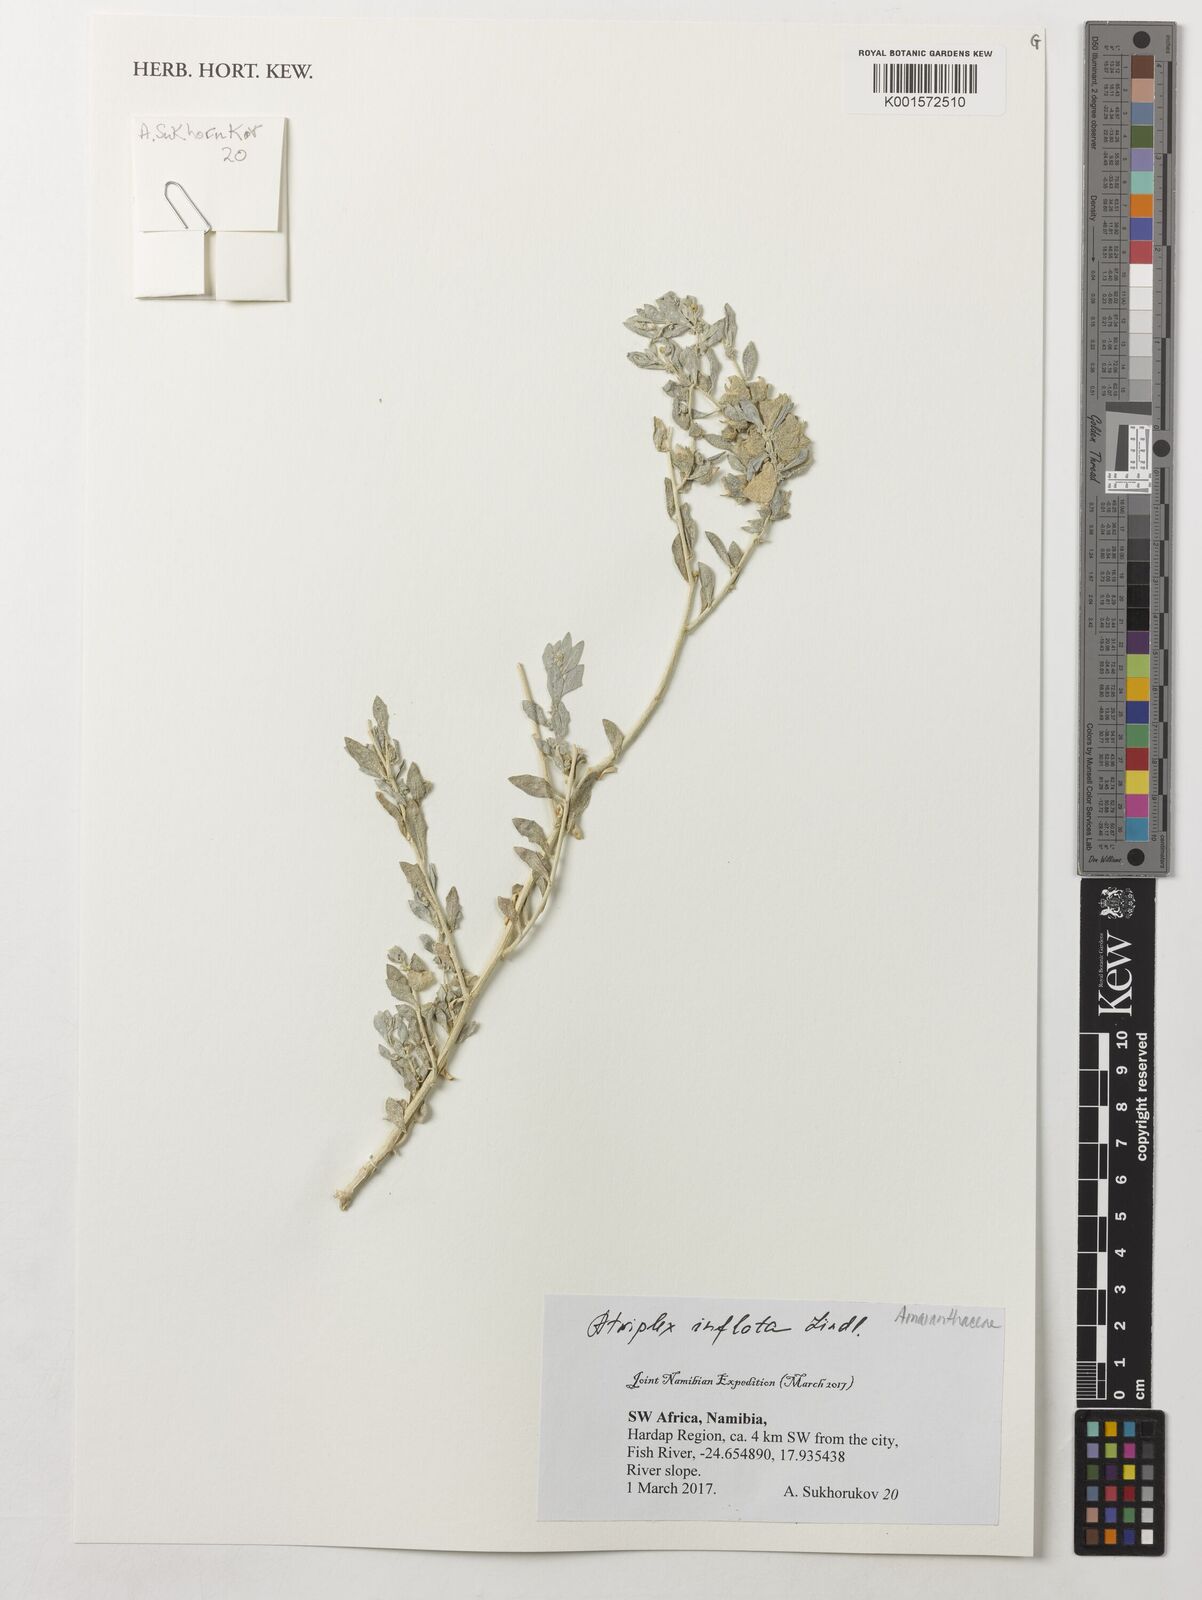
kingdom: Plantae
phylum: Tracheophyta
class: Magnoliopsida
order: Caryophyllales
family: Amaranthaceae
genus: Atriplex
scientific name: Atriplex lindleyi
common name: Lindley's saltbush
